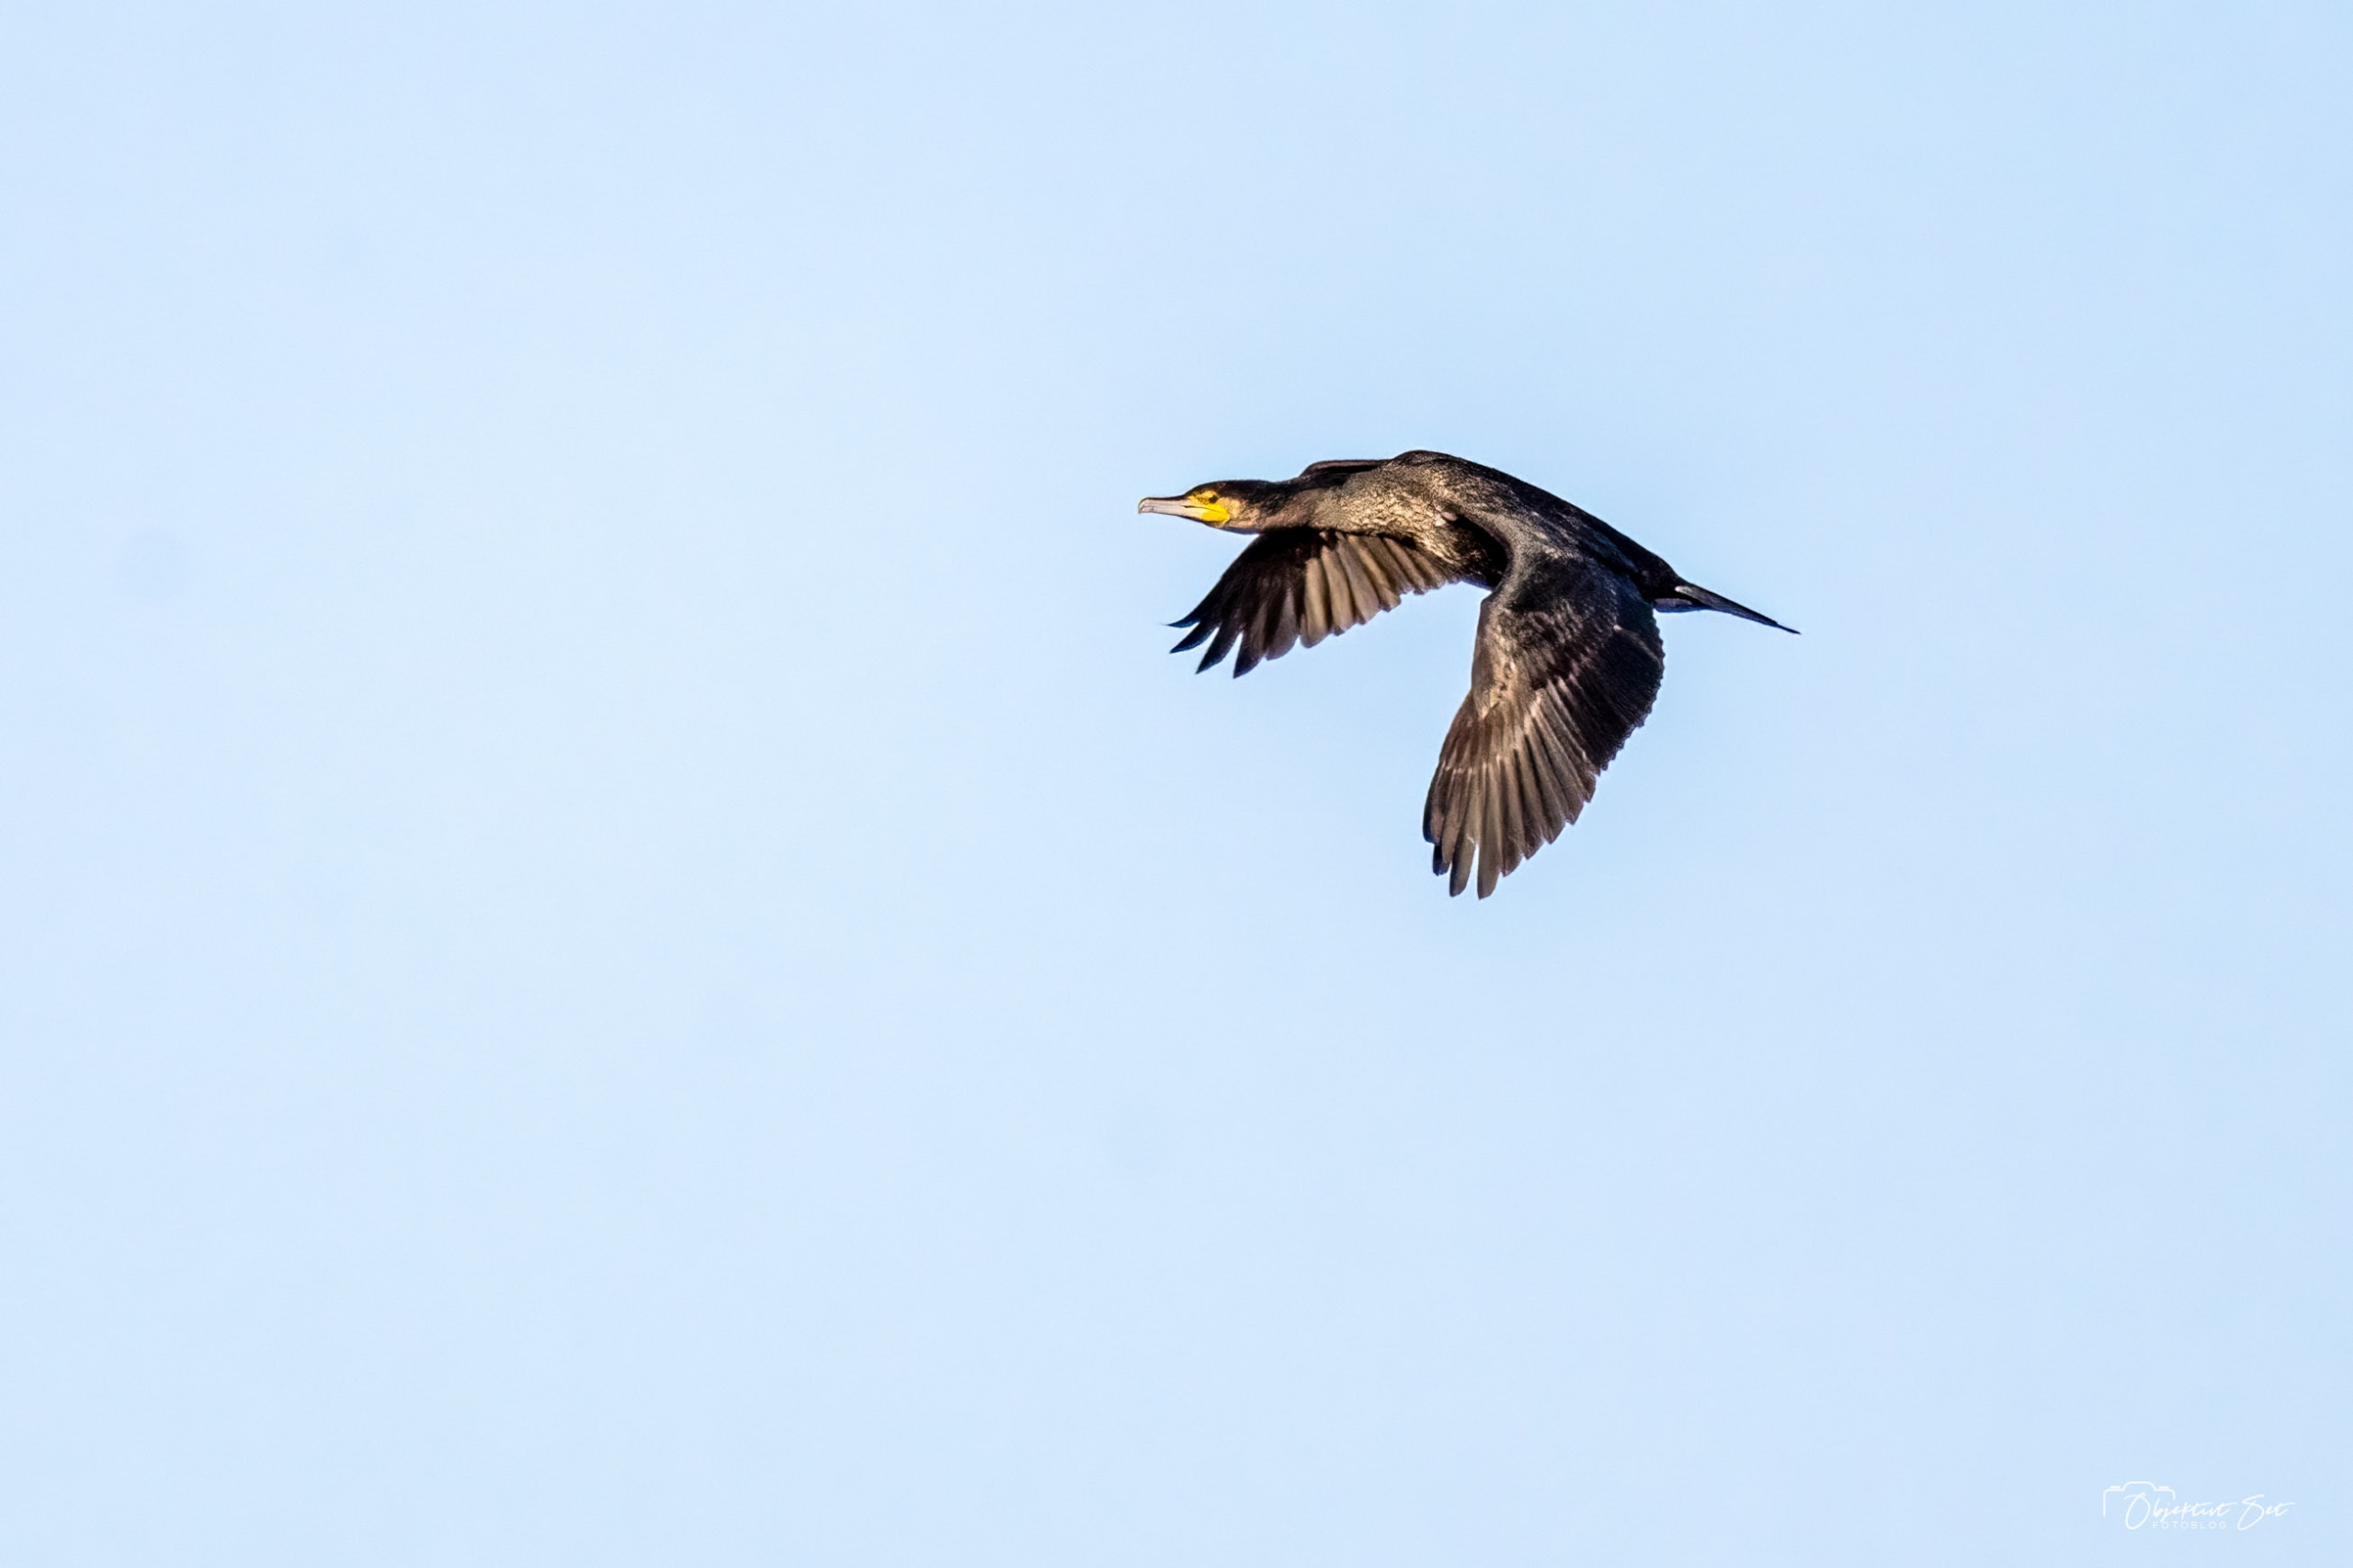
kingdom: Animalia
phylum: Chordata
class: Aves
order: Suliformes
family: Phalacrocoracidae
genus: Phalacrocorax
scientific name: Phalacrocorax carbo
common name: Skarv
